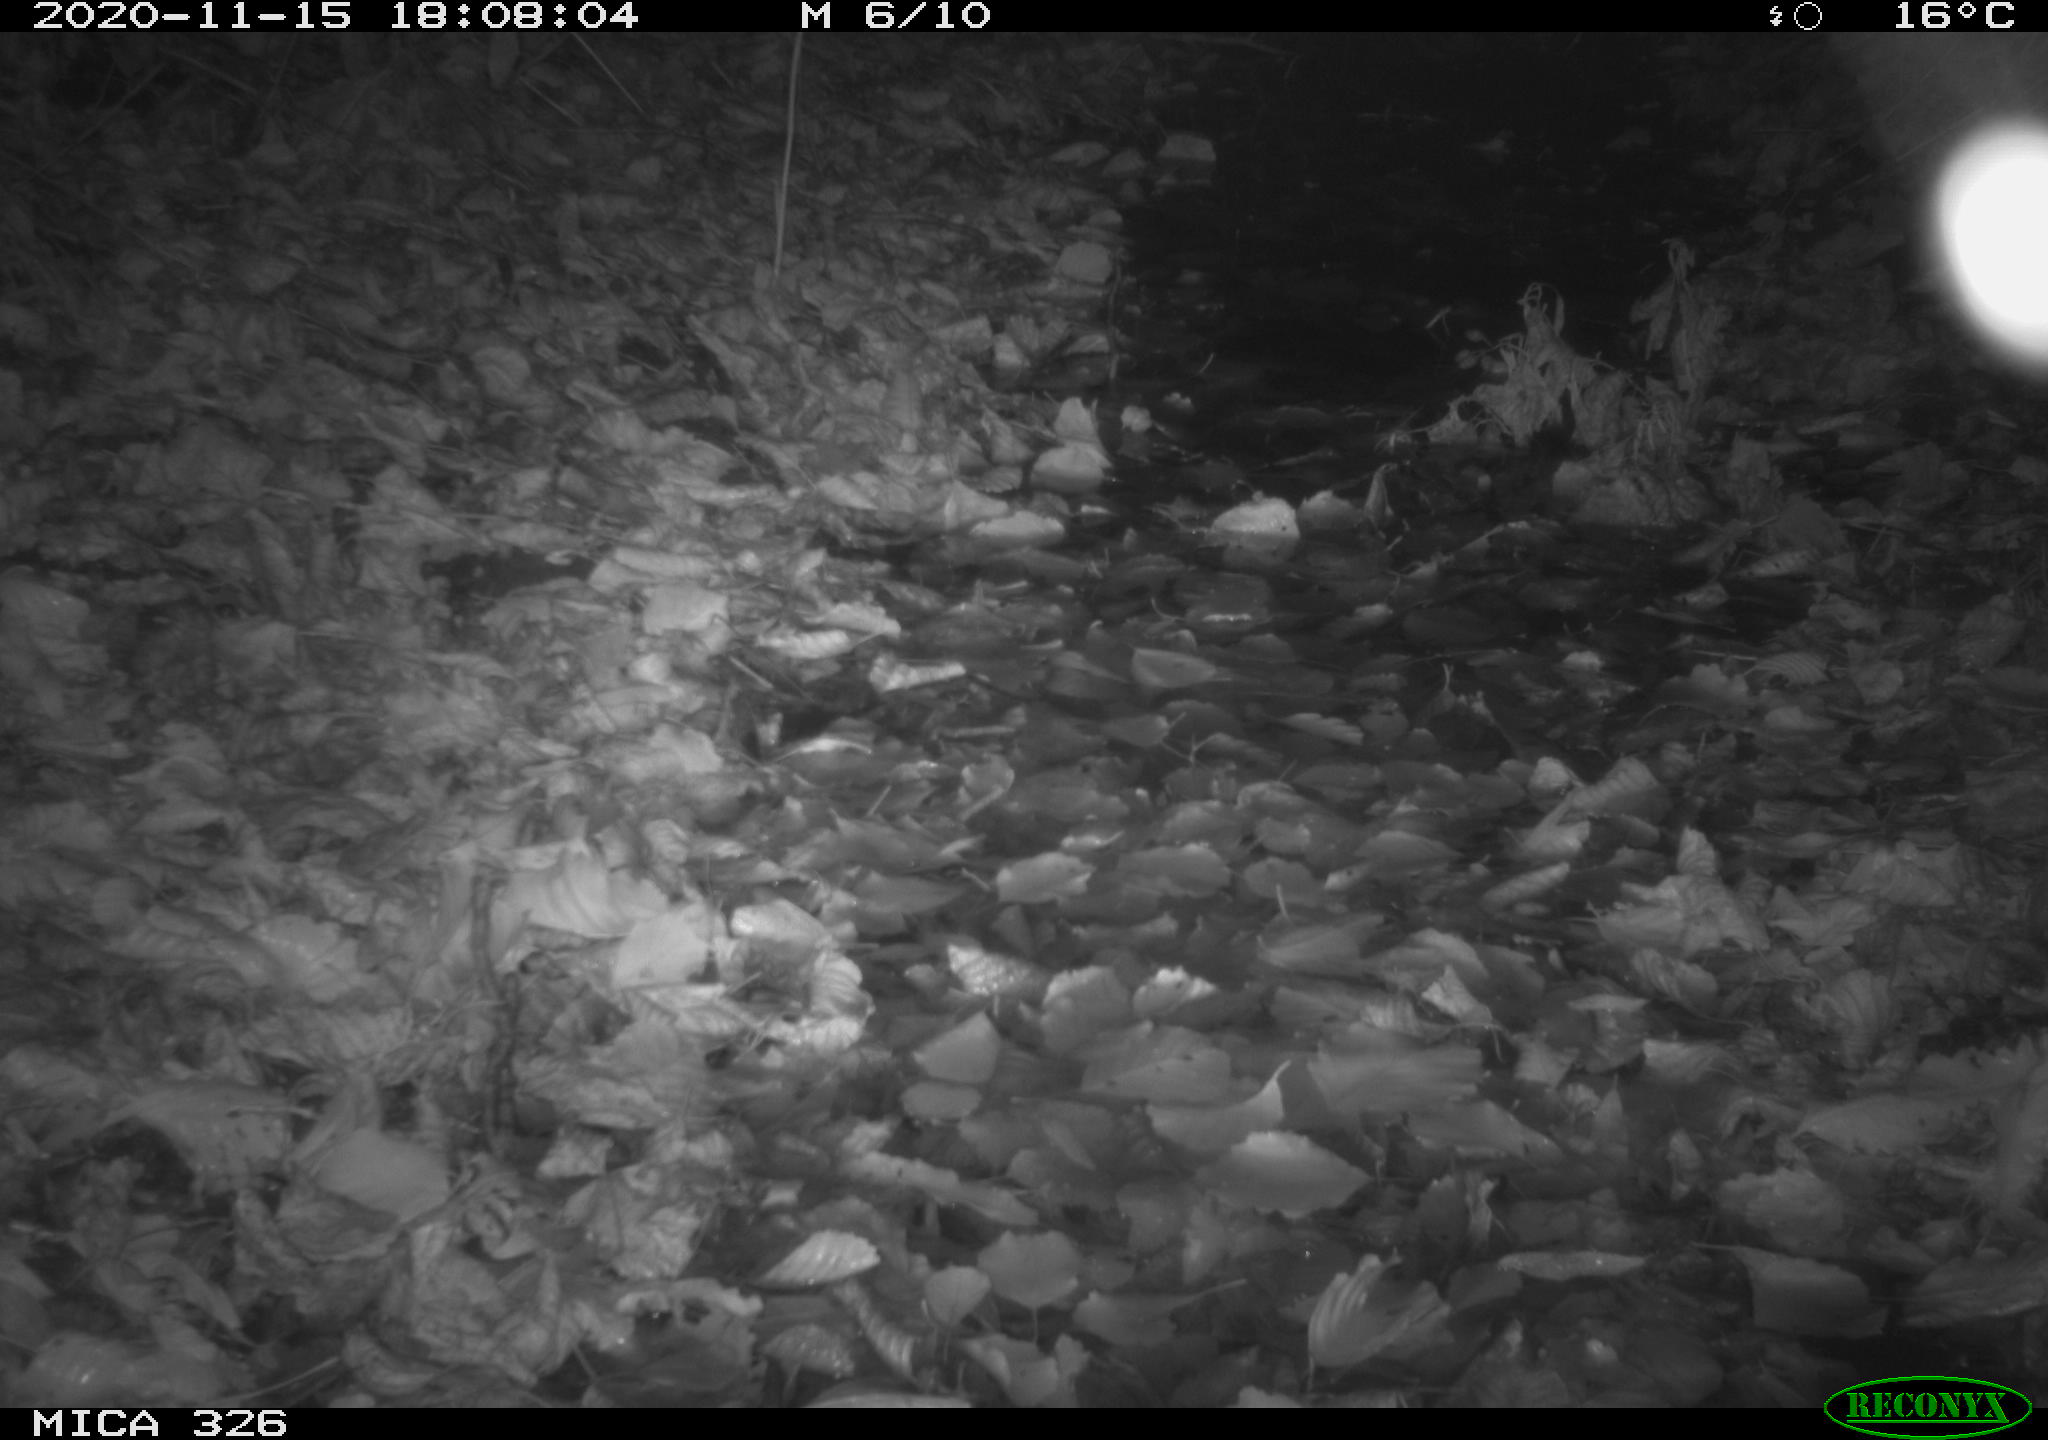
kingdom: Animalia
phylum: Chordata
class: Aves
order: Charadriiformes
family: Scolopacidae
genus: Scolopax
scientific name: Scolopax rusticola
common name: Eurasian woodcock
